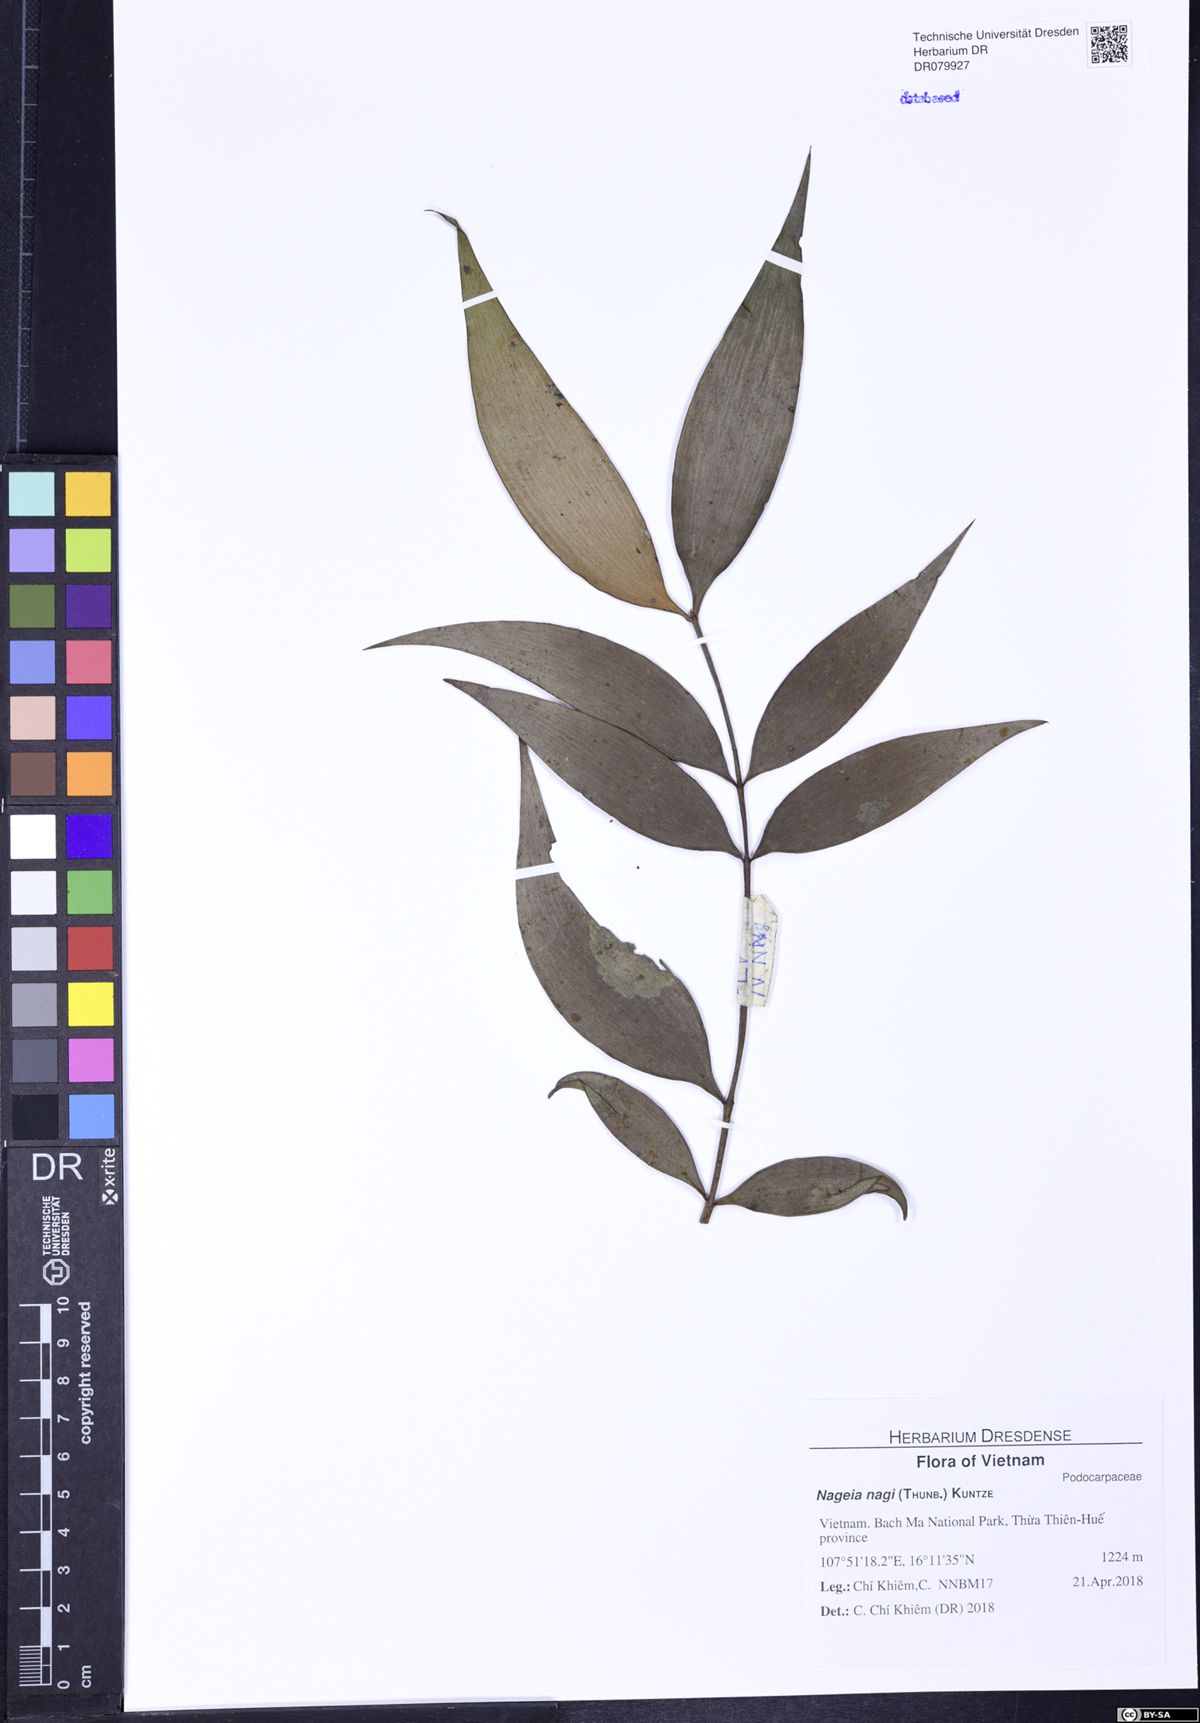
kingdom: Plantae
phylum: Tracheophyta
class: Pinopsida
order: Pinales
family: Podocarpaceae
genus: Nageia
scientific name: Nageia nagi
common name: Kaphal
